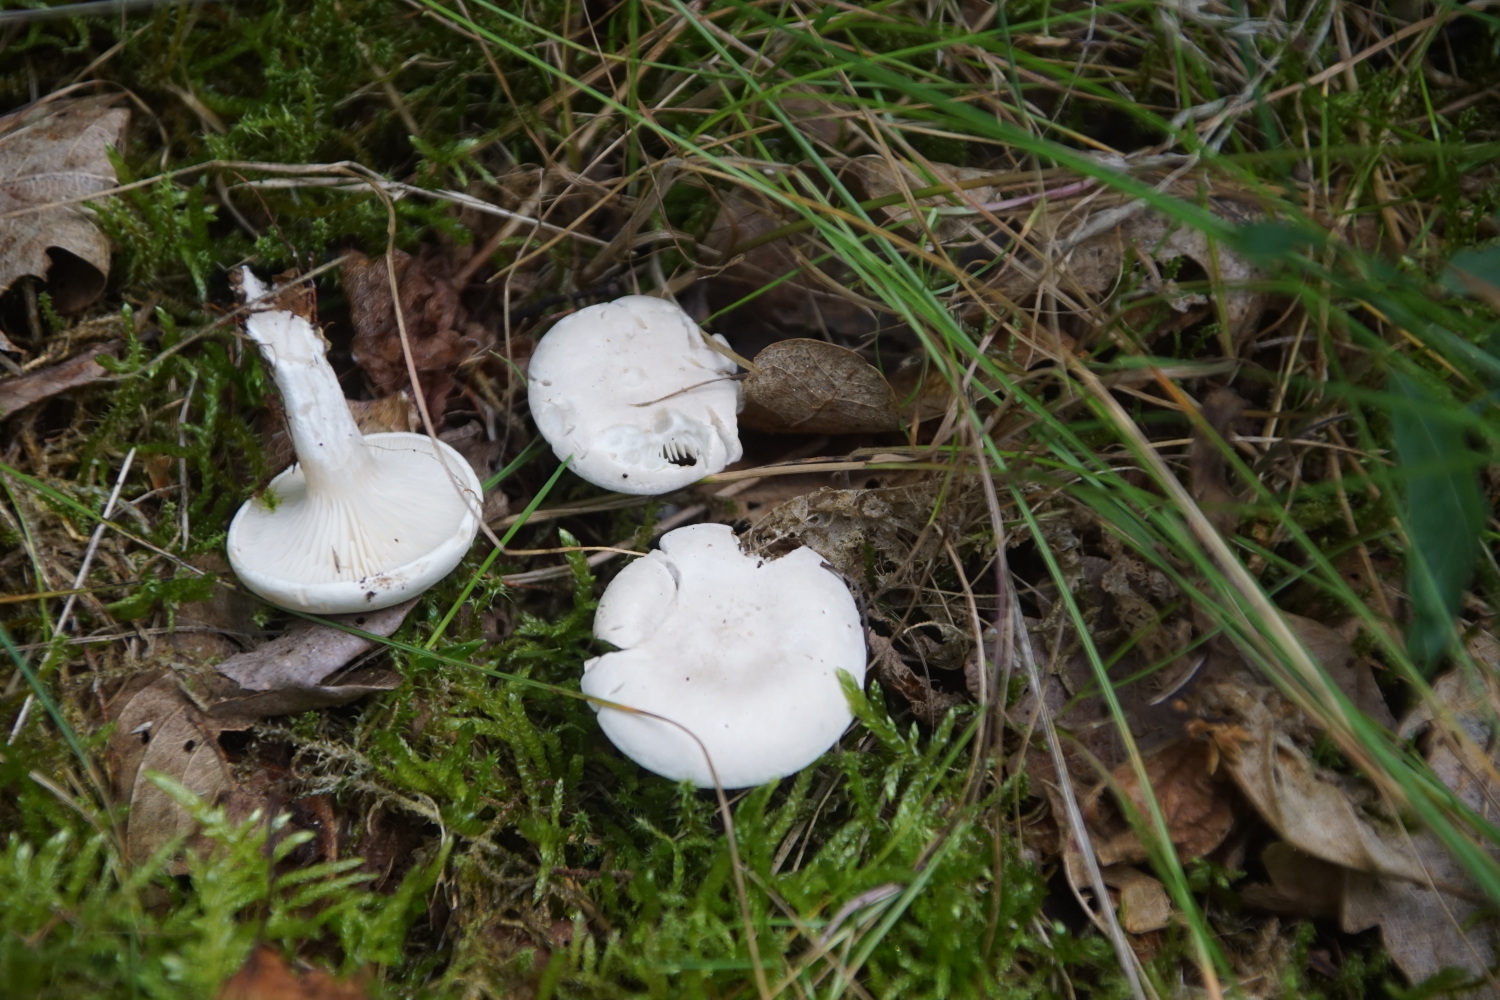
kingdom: Fungi
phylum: Basidiomycota
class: Agaricomycetes
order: Agaricales
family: Entolomataceae
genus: Clitopilus
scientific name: Clitopilus prunulus
